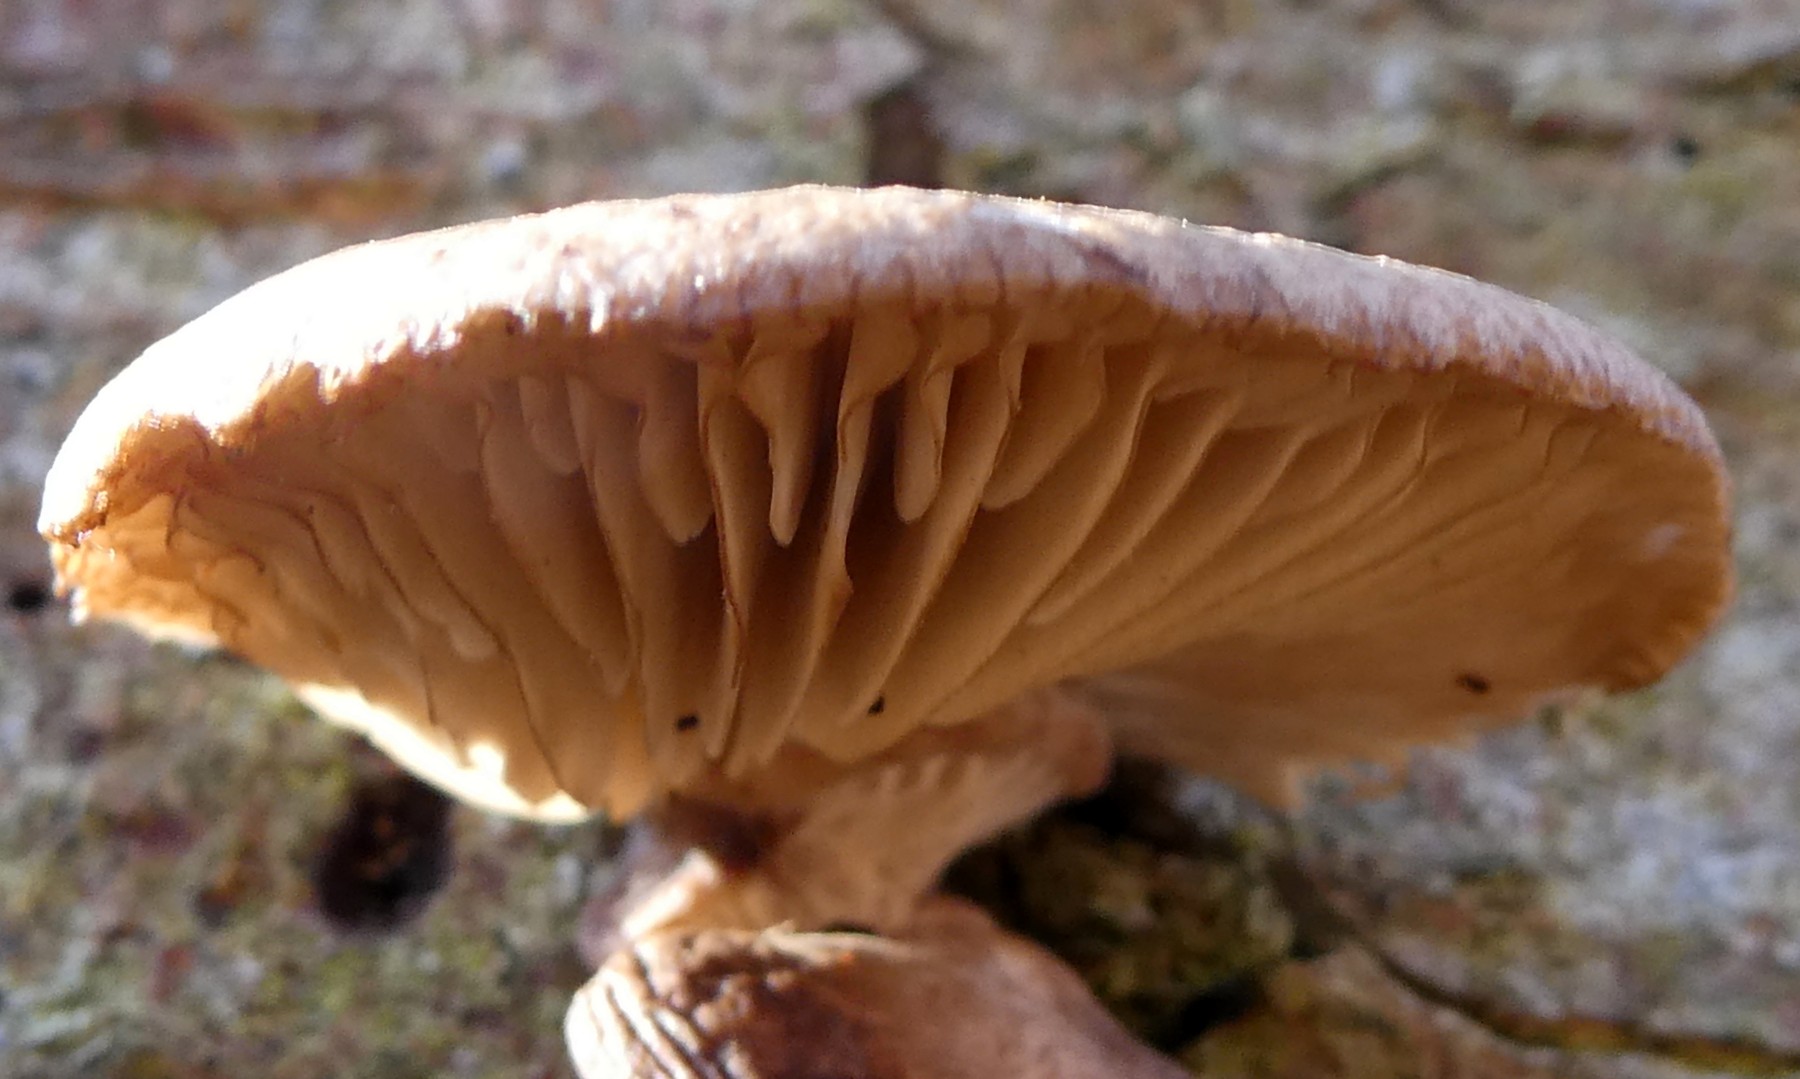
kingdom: Fungi
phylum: Basidiomycota
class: Agaricomycetes
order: Agaricales
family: Pleurotaceae
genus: Pleurotus
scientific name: Pleurotus
